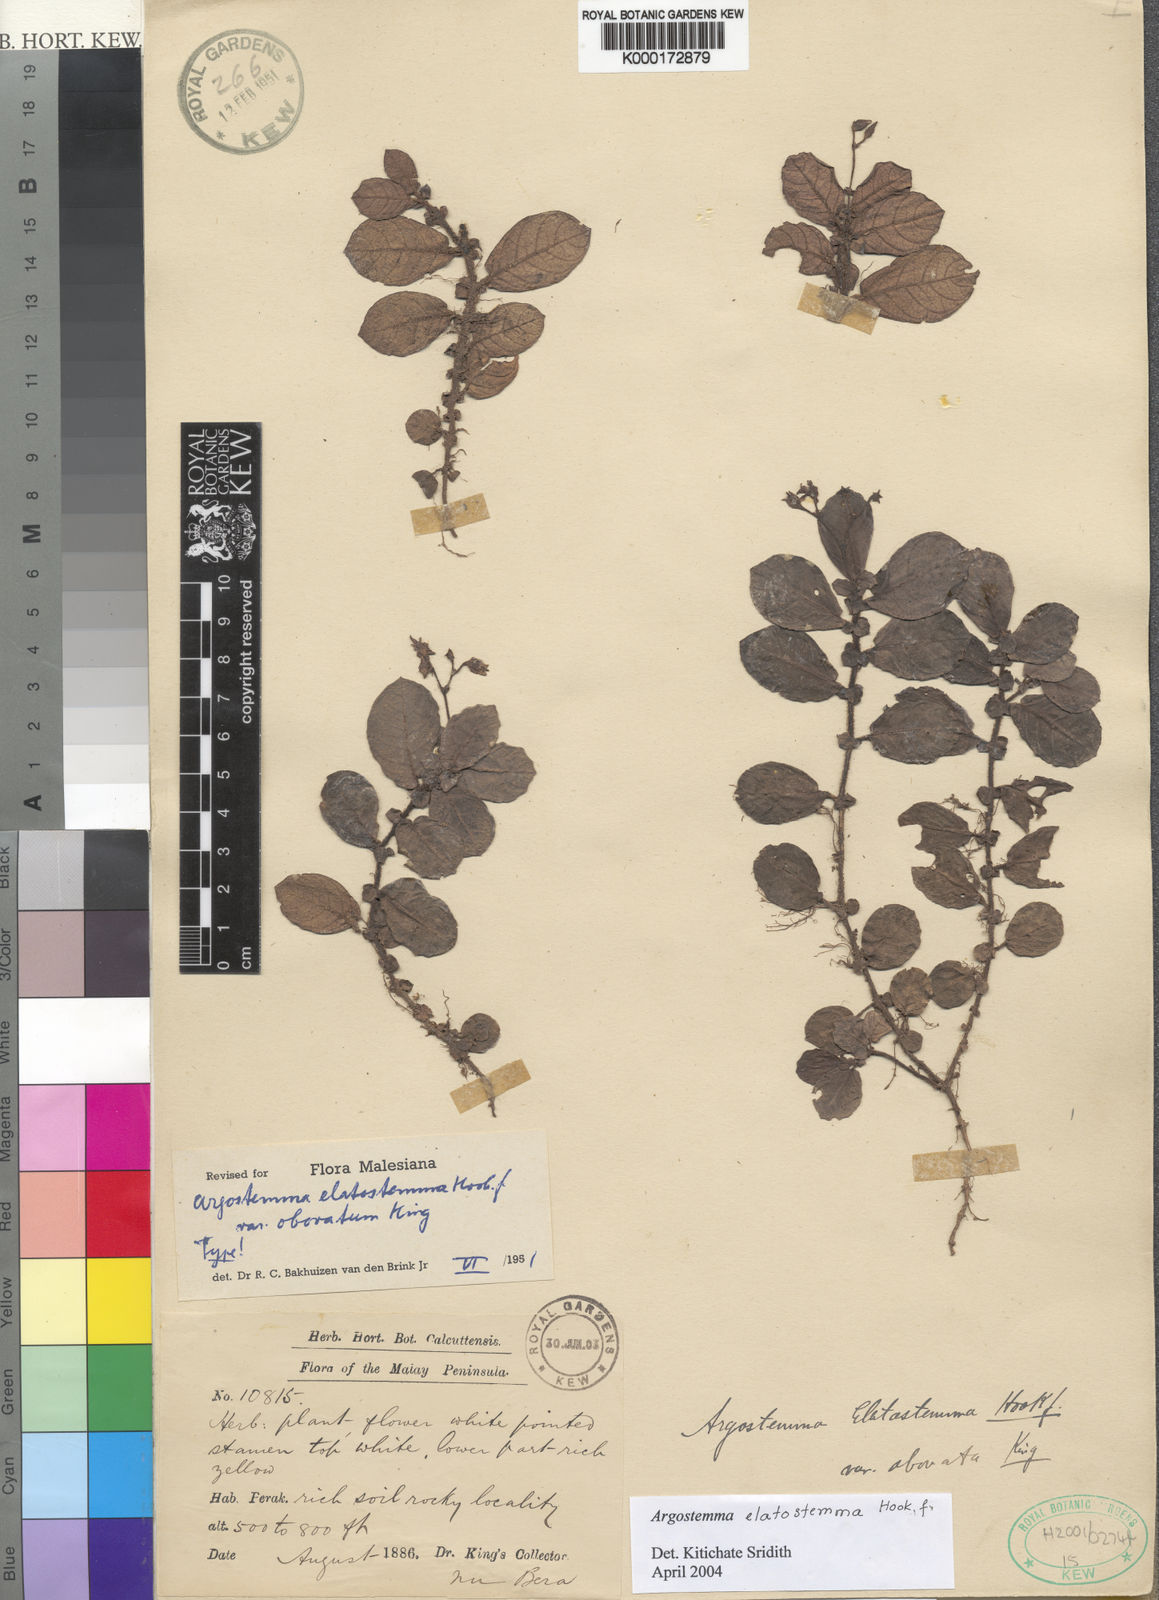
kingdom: Plantae
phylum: Tracheophyta
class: Magnoliopsida
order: Gentianales
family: Rubiaceae
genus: Argostemma
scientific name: Argostemma elatostemma
